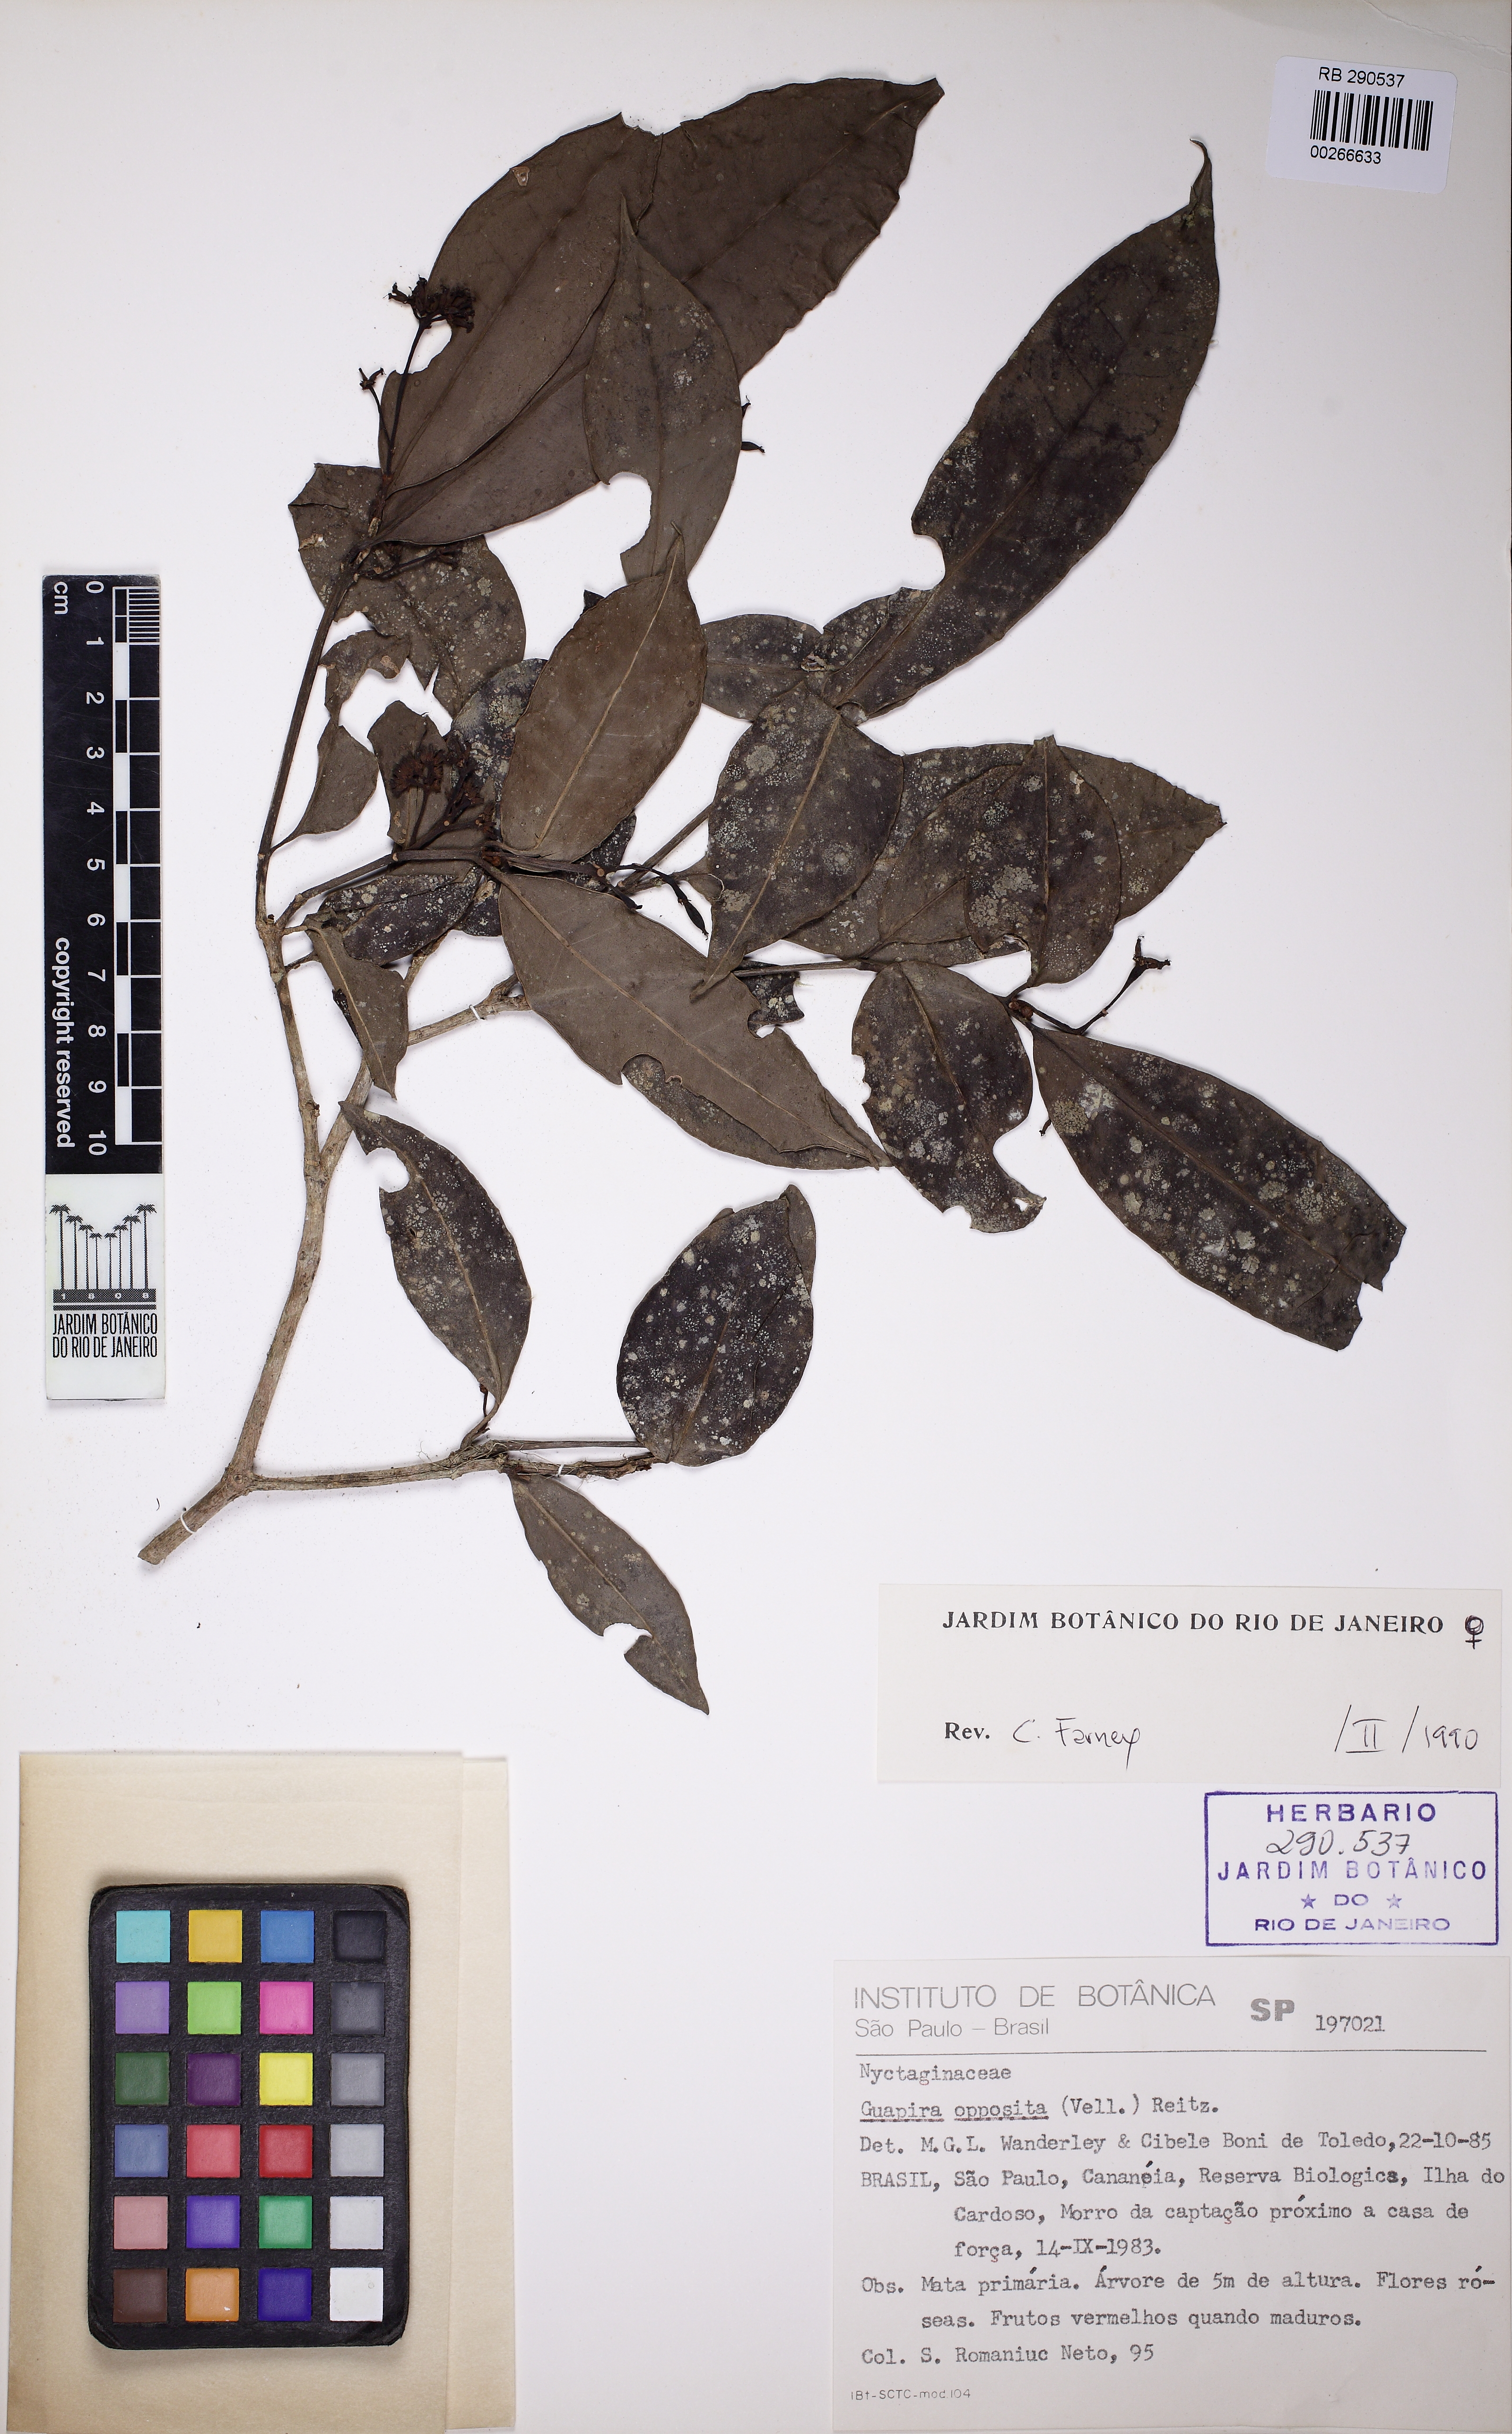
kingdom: Plantae
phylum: Tracheophyta
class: Magnoliopsida
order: Caryophyllales
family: Nyctaginaceae
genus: Guapira
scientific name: Guapira opposita
